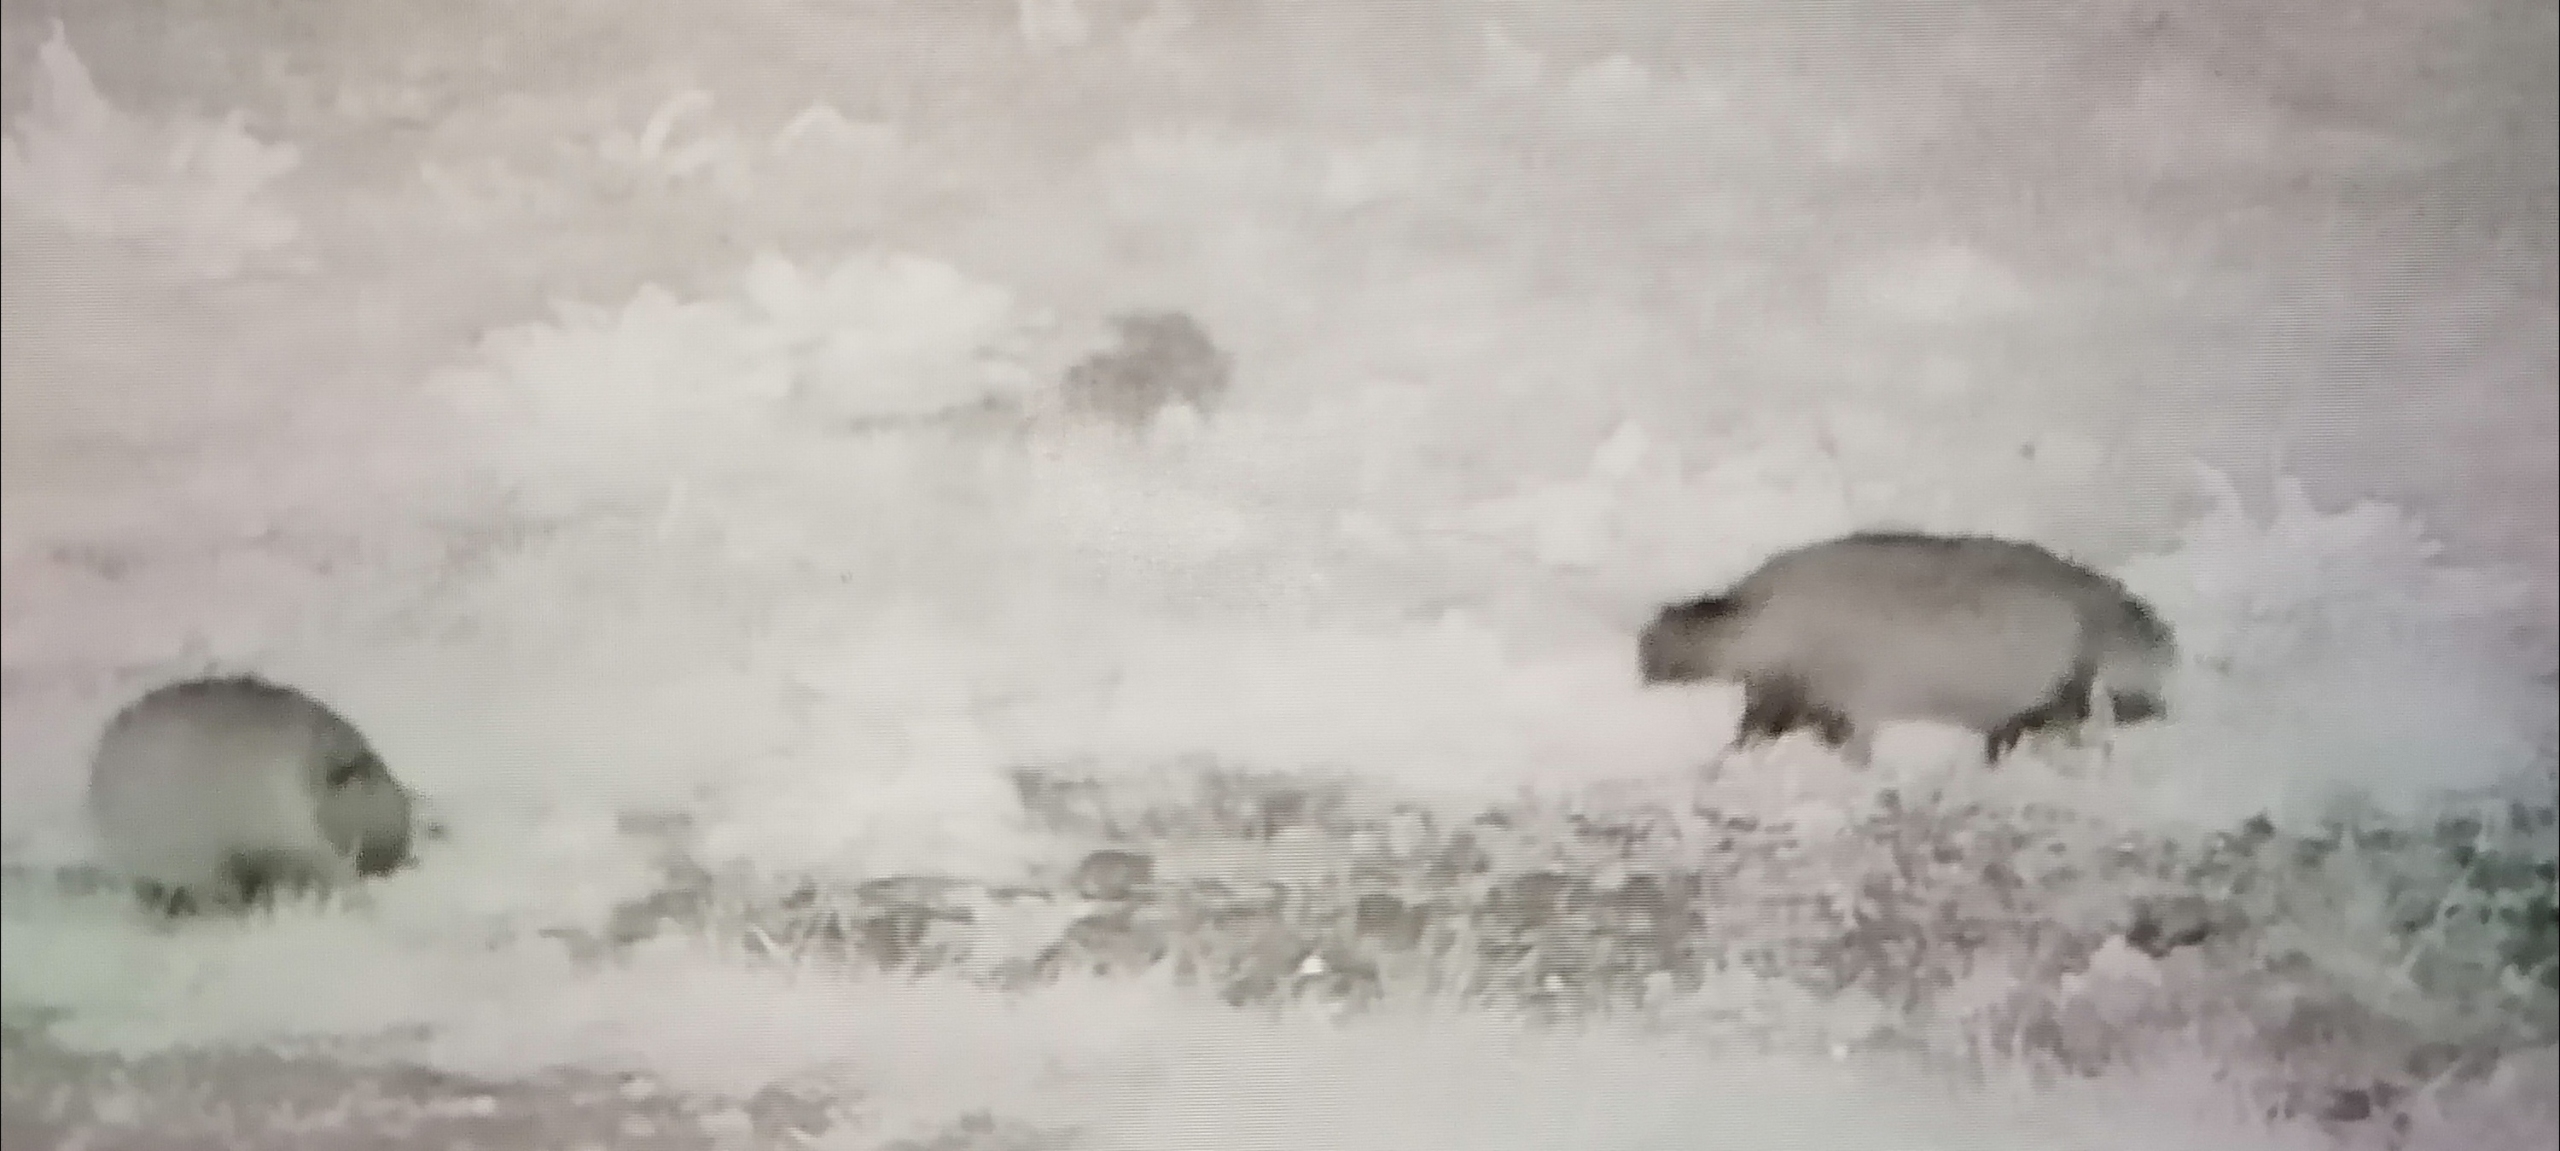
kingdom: Animalia
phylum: Chordata
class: Mammalia
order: Carnivora
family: Canidae
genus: Nyctereutes
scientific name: Nyctereutes procyonoides
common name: Mårhund
